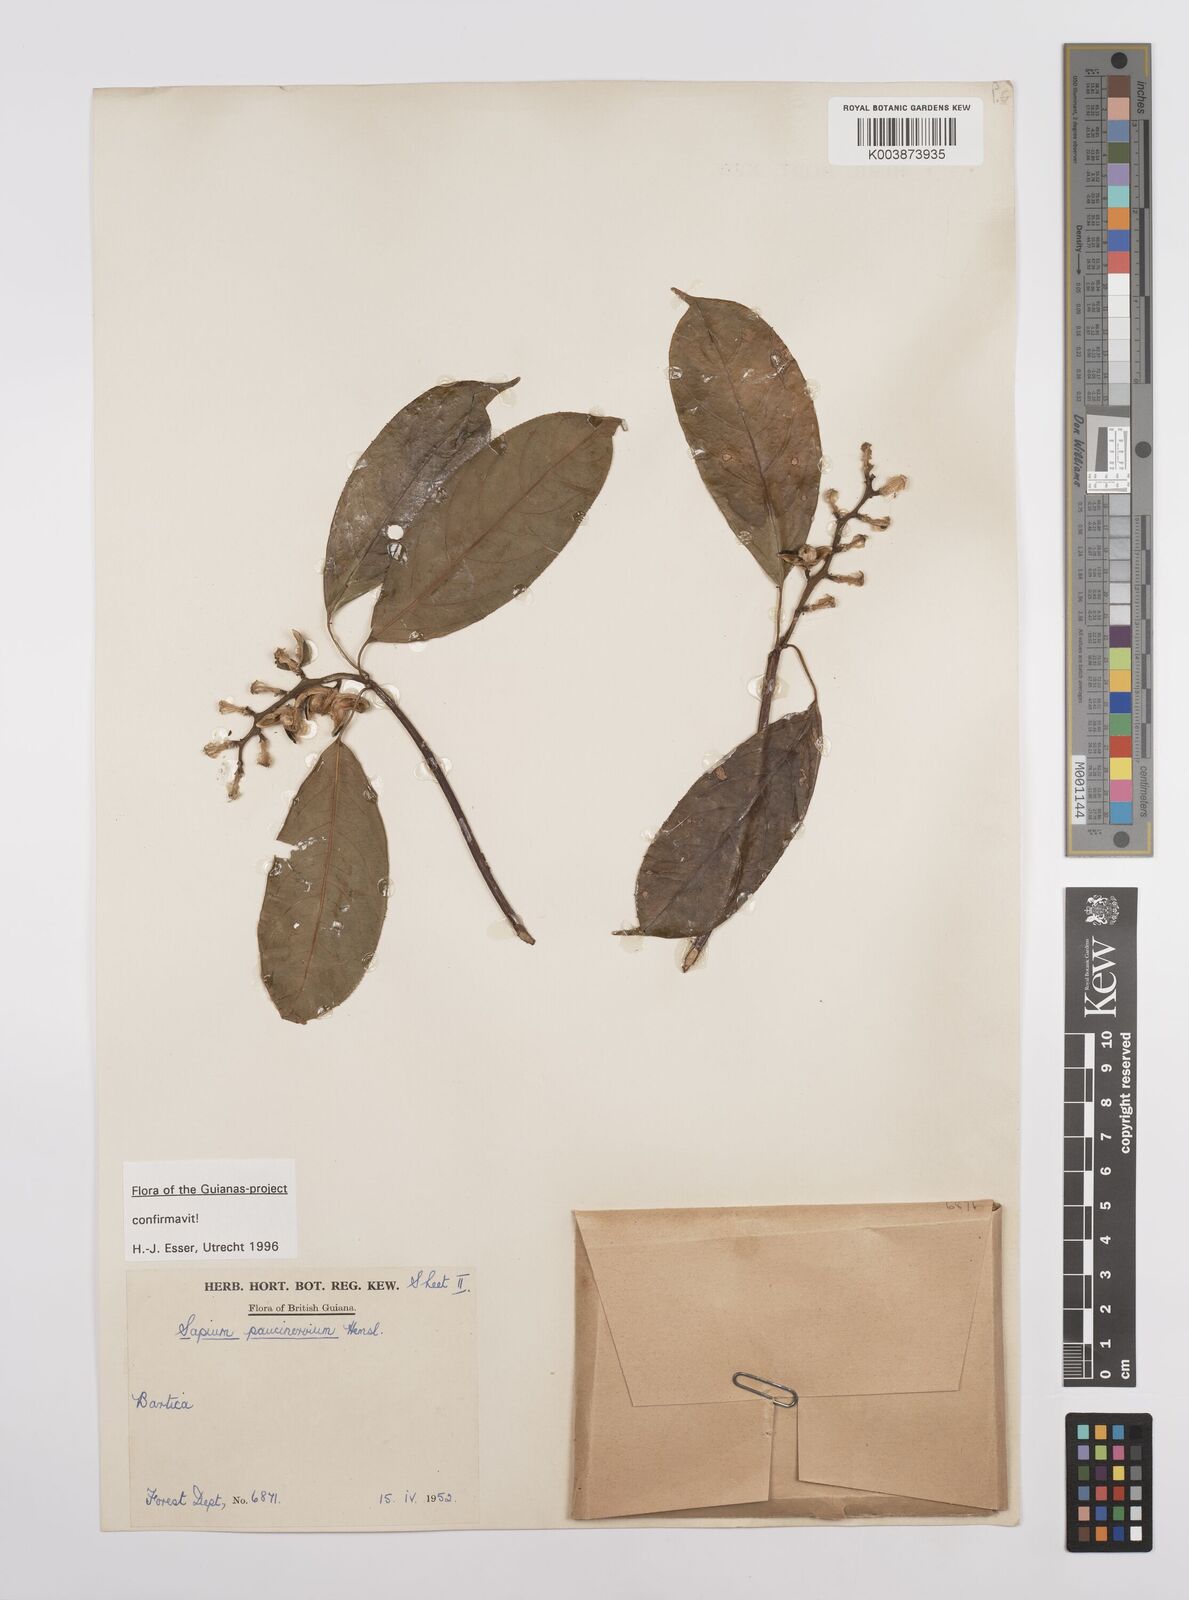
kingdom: Plantae
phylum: Tracheophyta
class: Magnoliopsida
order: Malpighiales
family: Euphorbiaceae
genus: Sapium
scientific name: Sapium paucinervium
